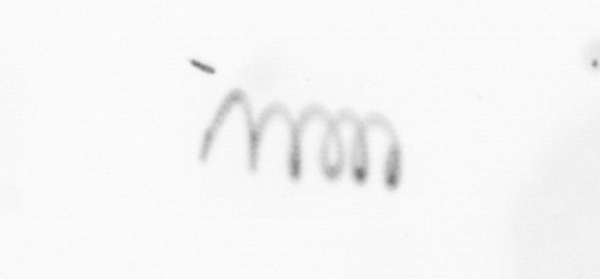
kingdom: Chromista
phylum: Ochrophyta
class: Bacillariophyceae
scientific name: Bacillariophyceae
